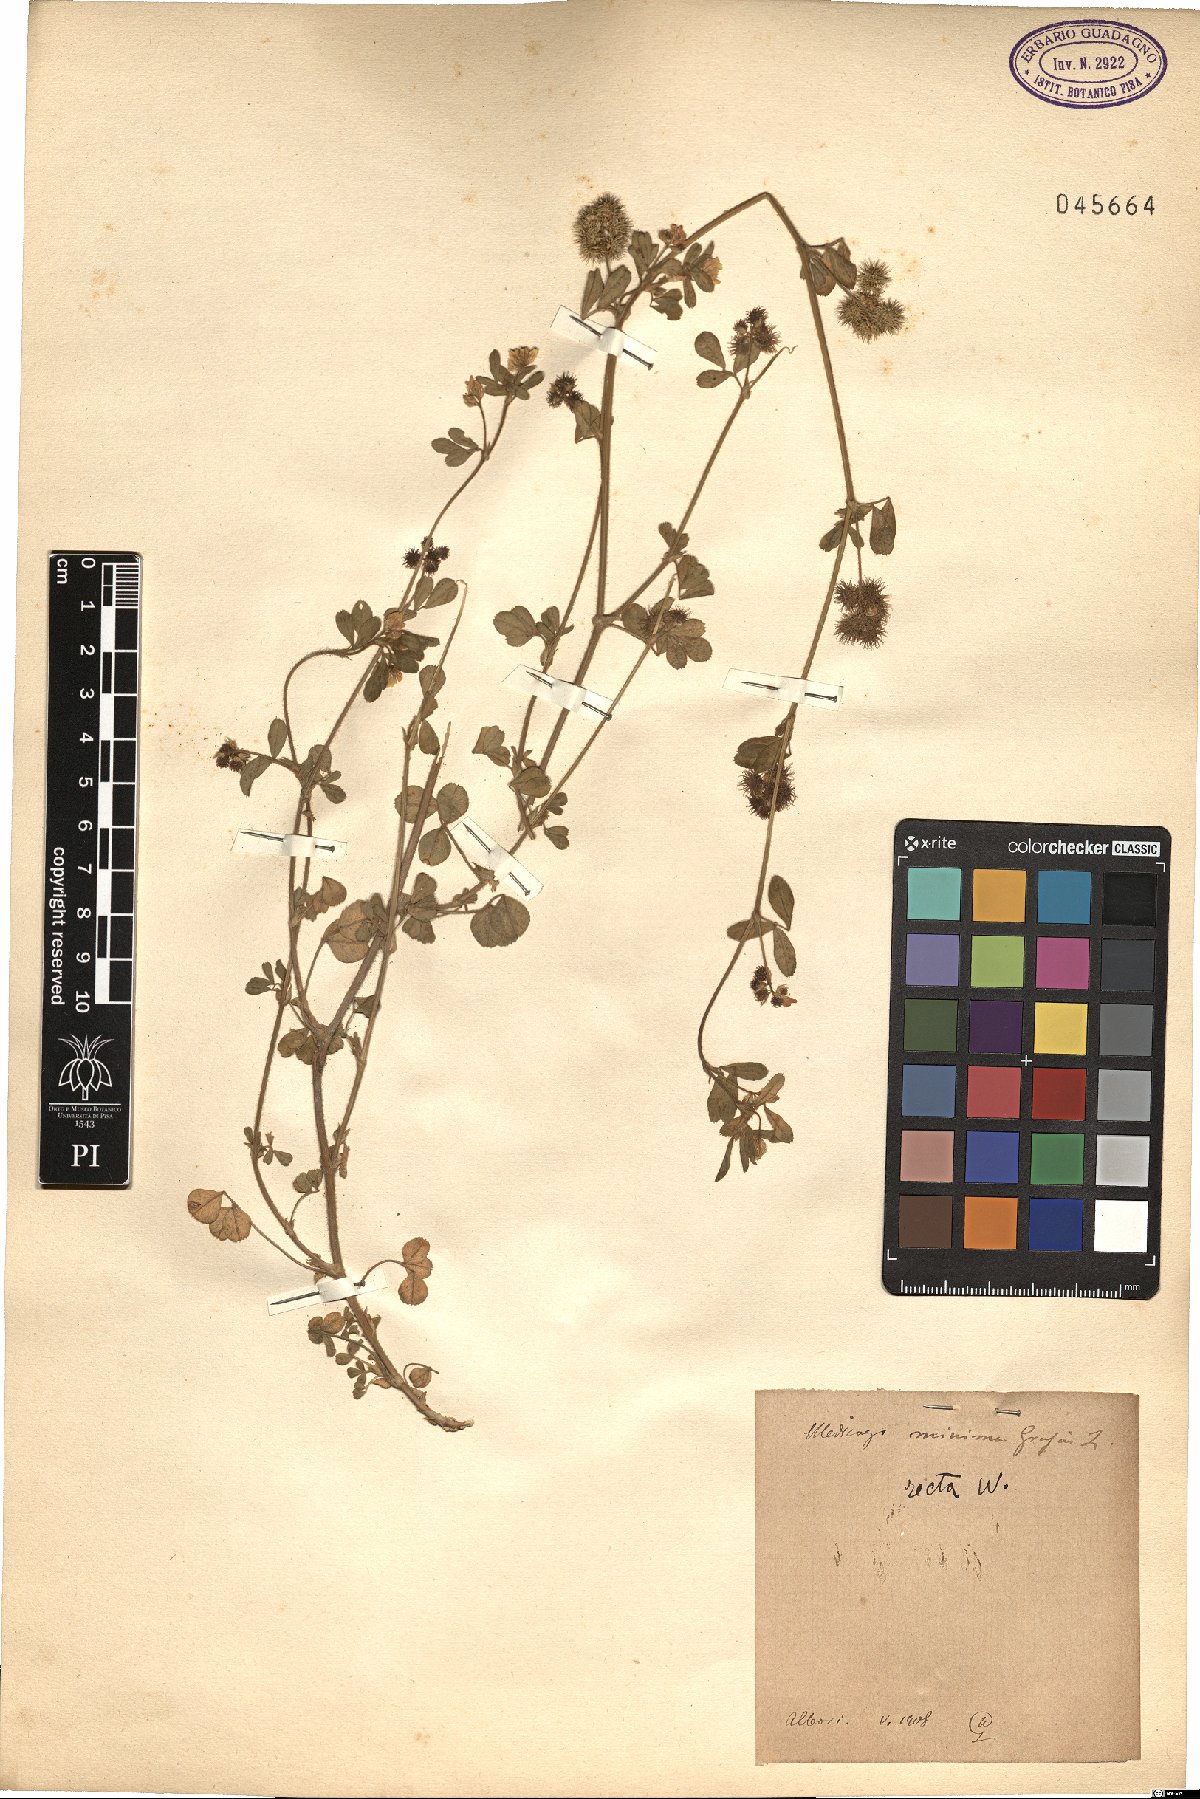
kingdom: Plantae
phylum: Tracheophyta
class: Magnoliopsida
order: Fabales
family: Fabaceae
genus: Medicago
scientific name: Medicago minima
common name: Little bur-clover
